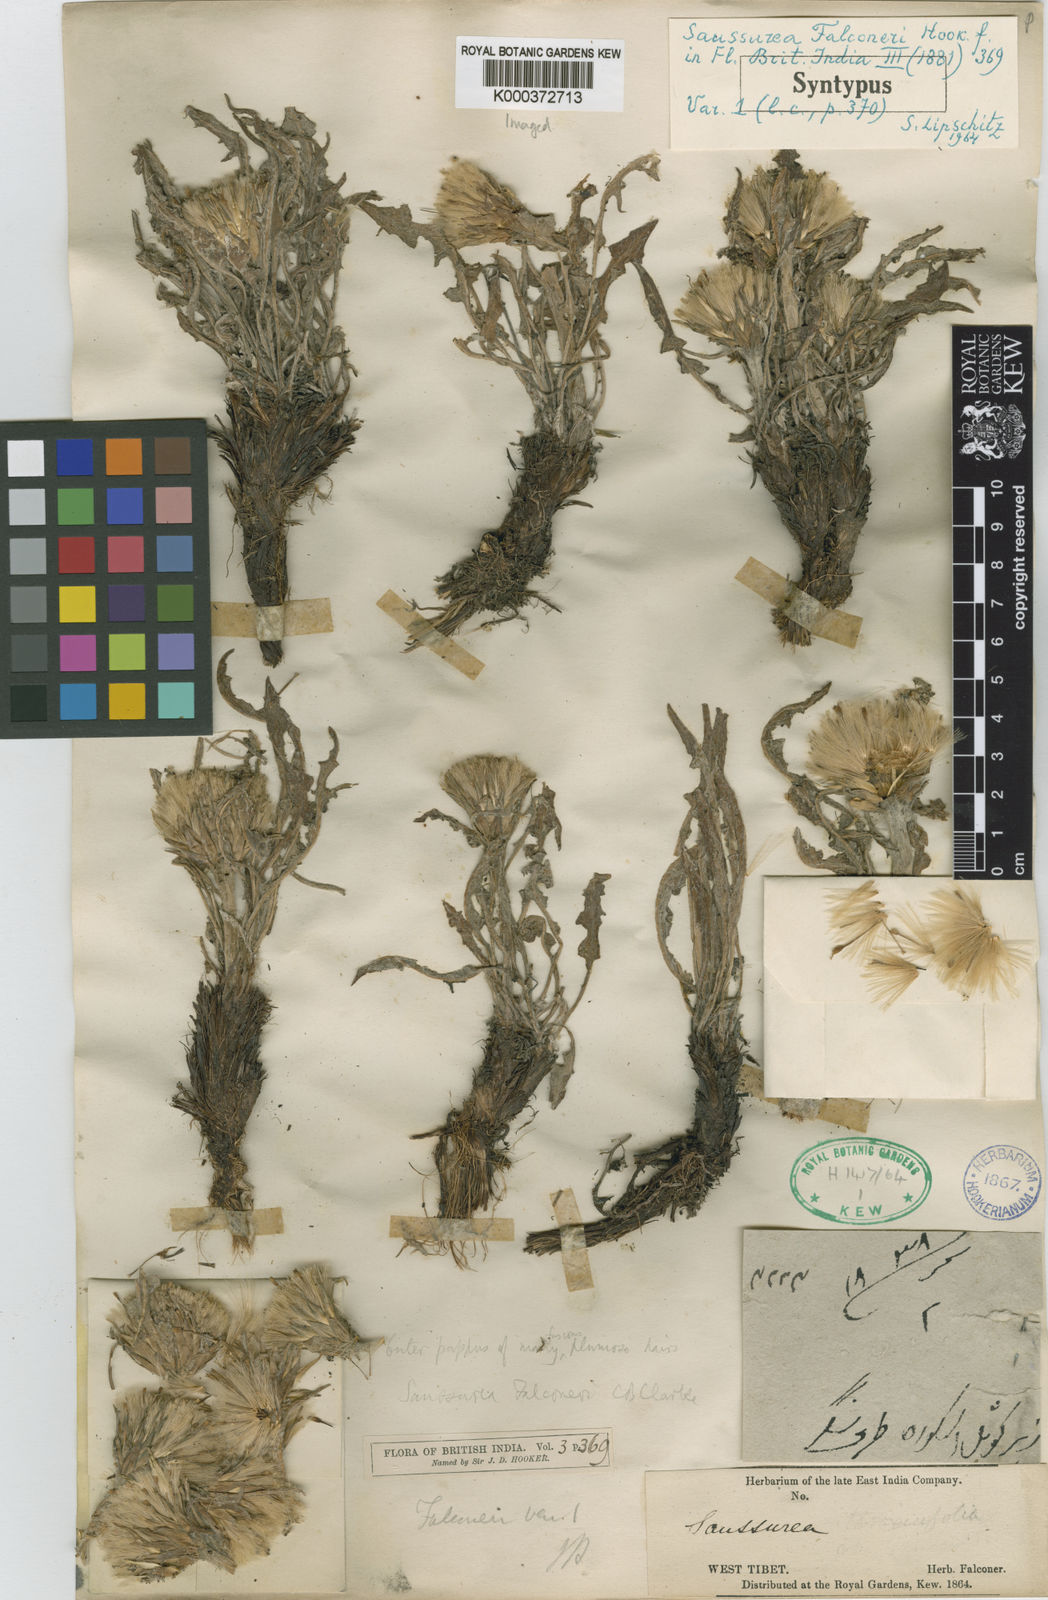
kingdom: Plantae
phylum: Tracheophyta
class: Magnoliopsida
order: Asterales
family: Asteraceae
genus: Saussurea
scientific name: Saussurea schlagintweitii
